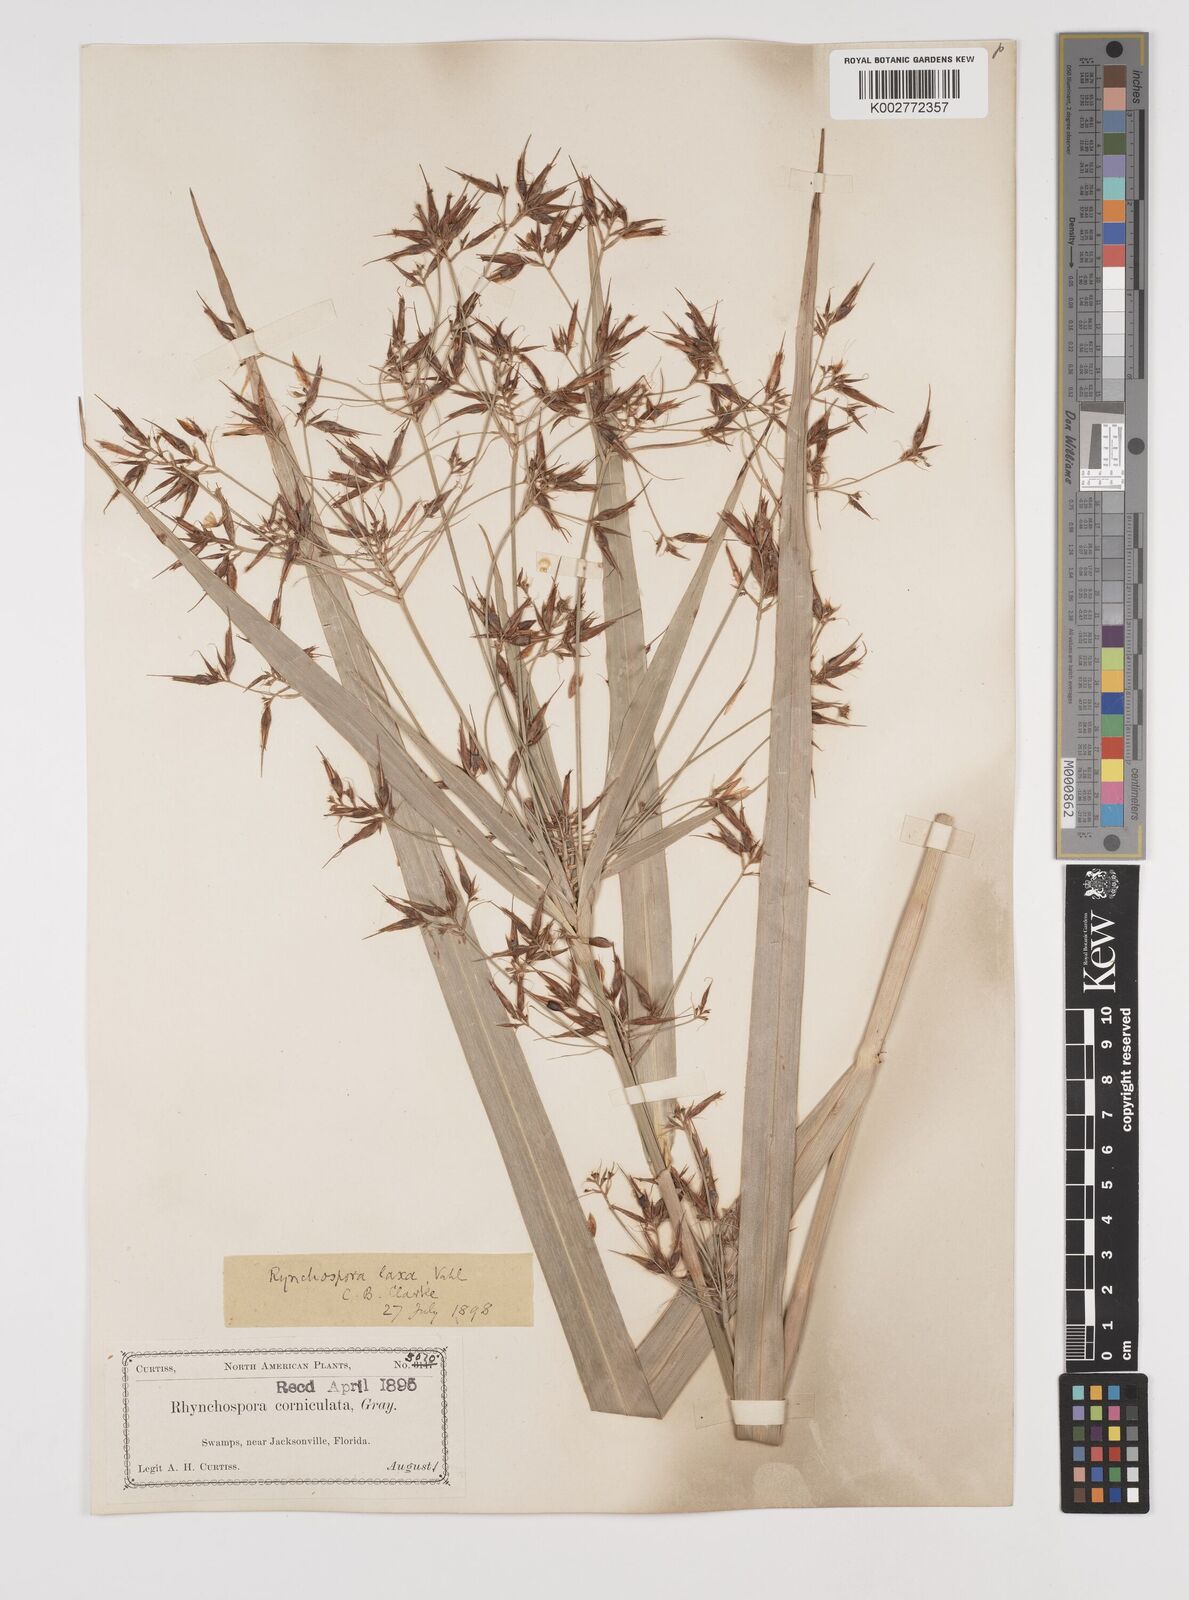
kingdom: Plantae
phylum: Tracheophyta
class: Liliopsida
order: Poales
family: Cyperaceae
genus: Rhynchospora
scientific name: Rhynchospora corniculata
